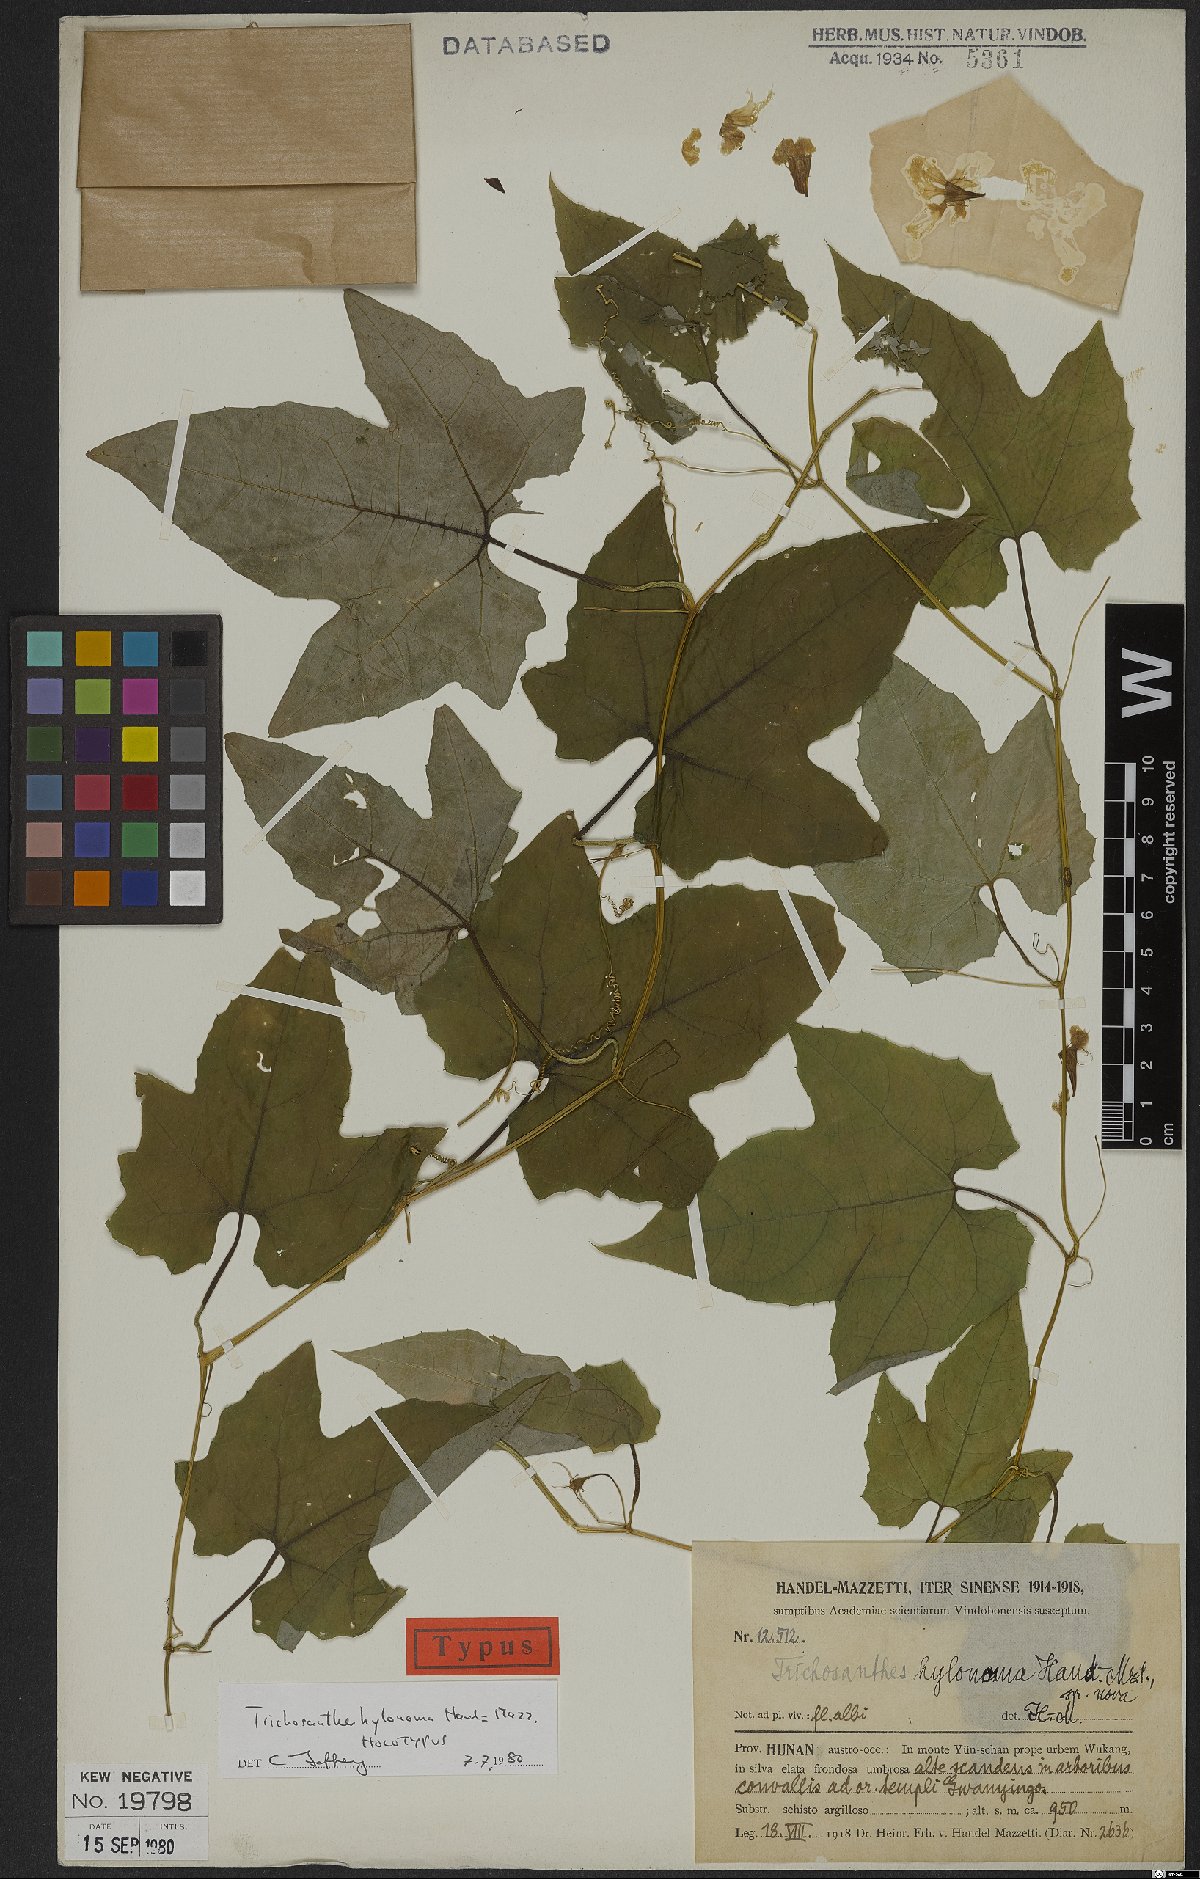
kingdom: Plantae
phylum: Tracheophyta
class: Magnoliopsida
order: Cucurbitales
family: Cucurbitaceae
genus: Trichosanthes
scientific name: Trichosanthes hylonoma
